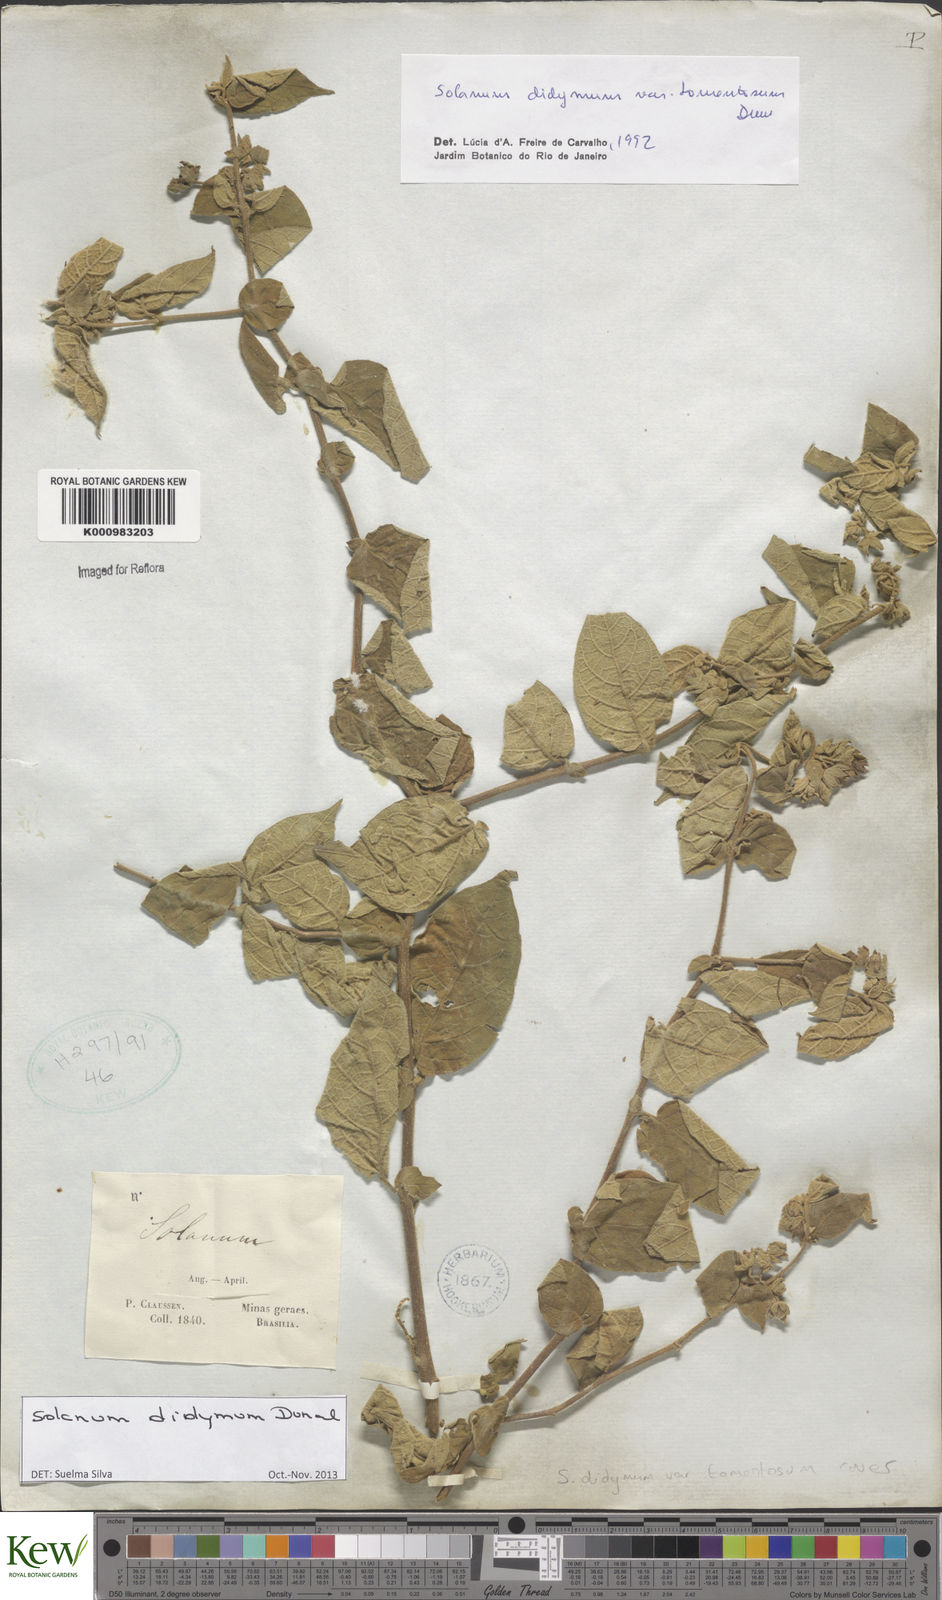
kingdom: Plantae
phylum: Tracheophyta
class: Magnoliopsida
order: Solanales
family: Solanaceae
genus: Solanum
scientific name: Solanum didymum
